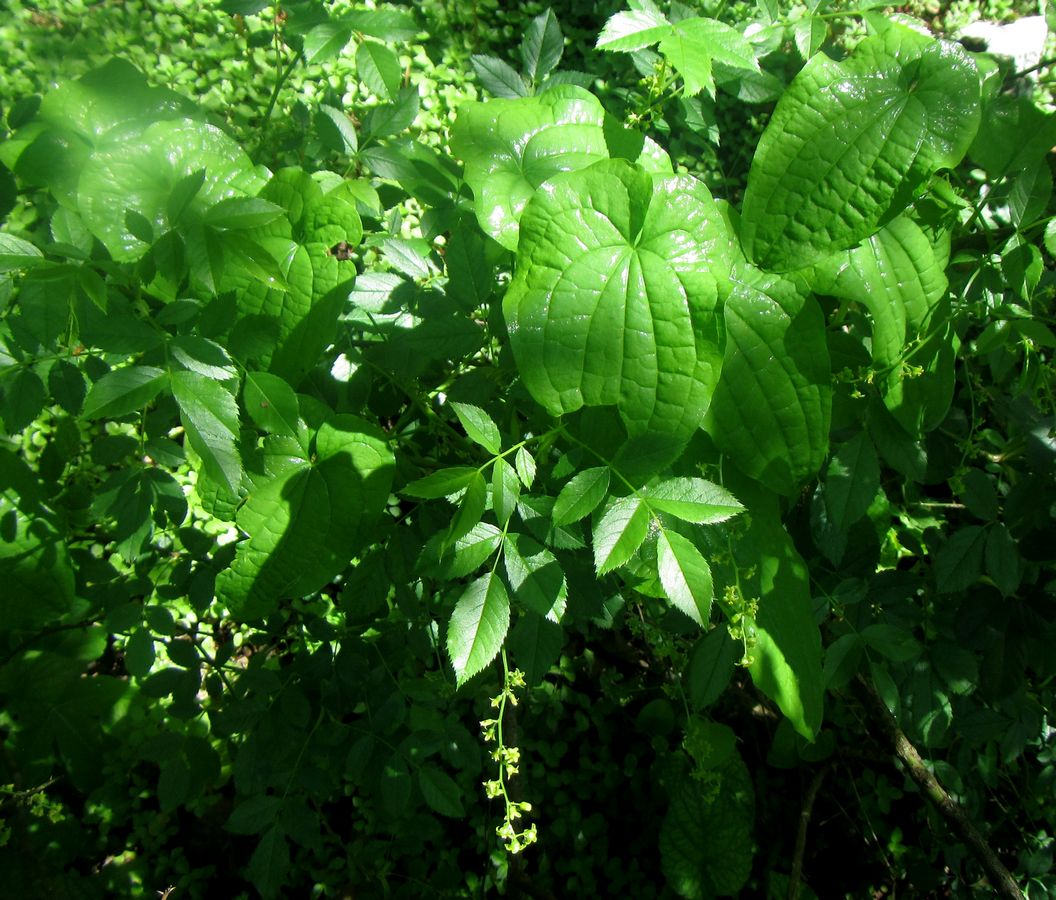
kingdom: Plantae
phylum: Tracheophyta
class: Liliopsida
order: Dioscoreales
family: Dioscoreaceae
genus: Dioscorea
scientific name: Dioscorea communis
